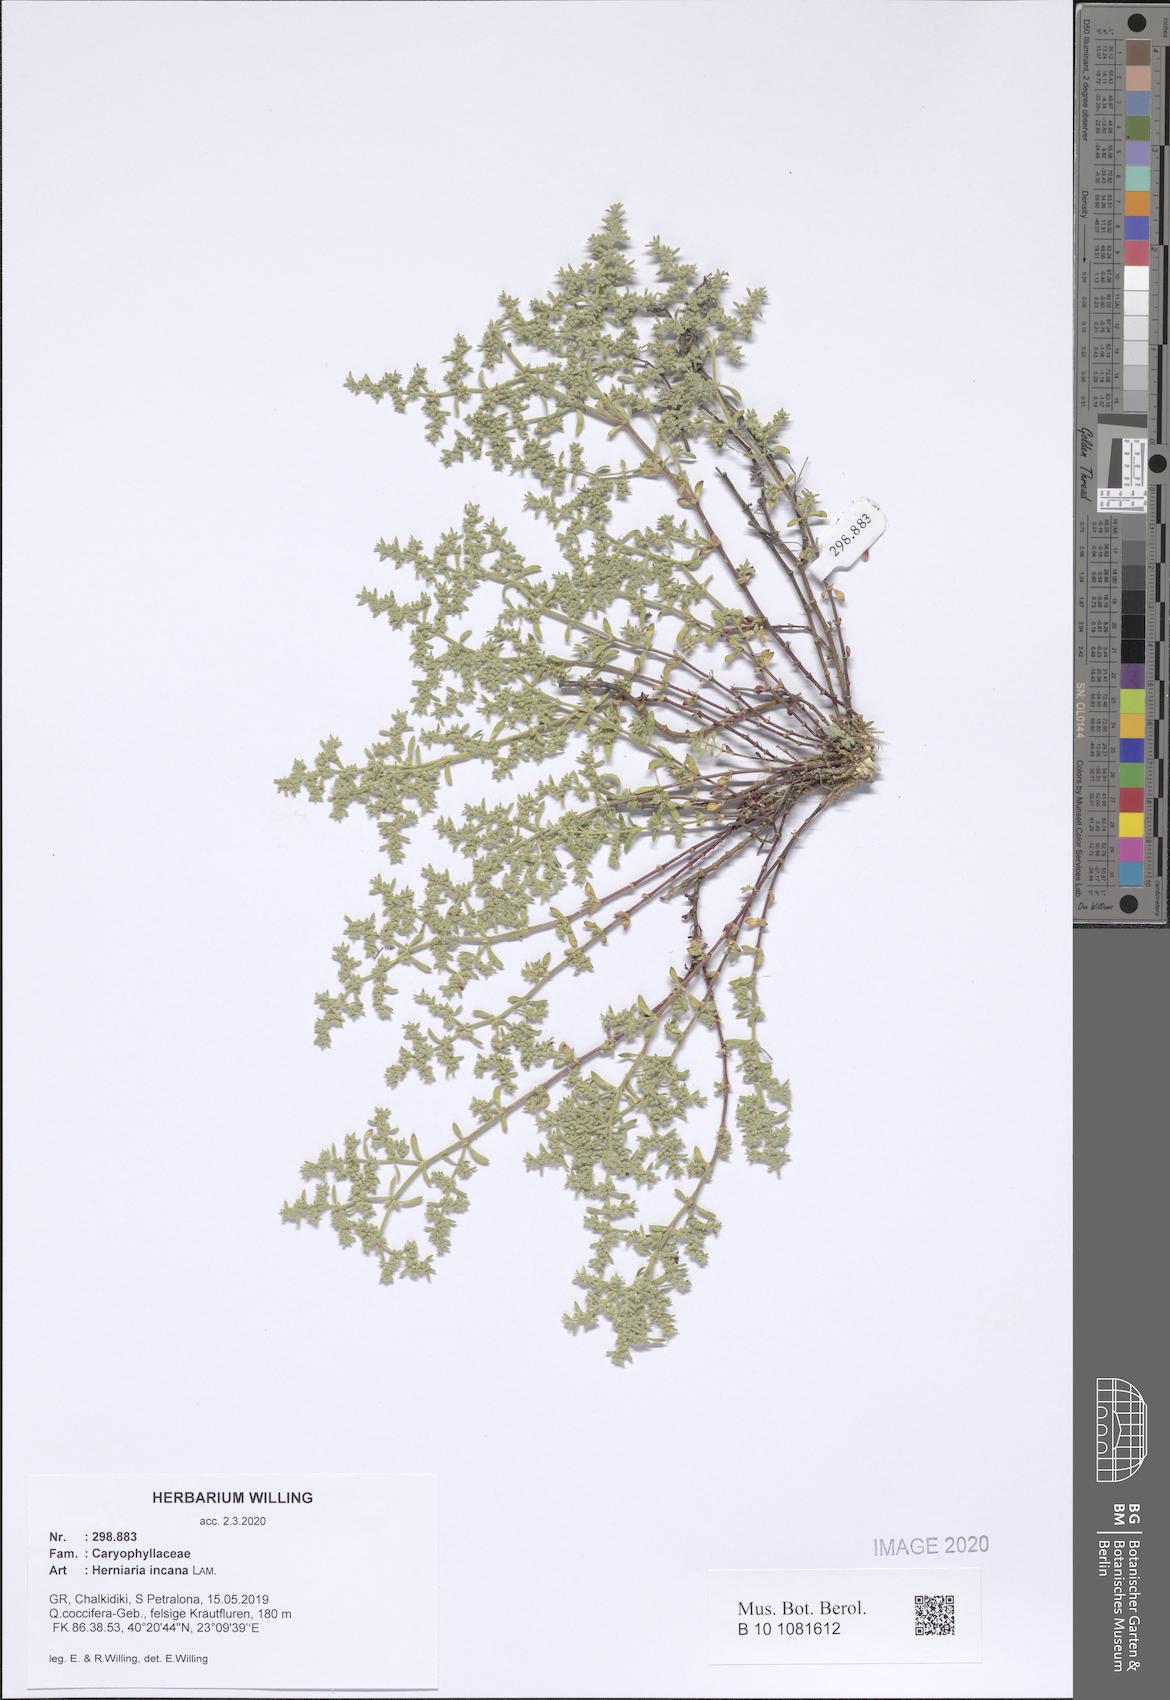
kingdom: Plantae
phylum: Tracheophyta
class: Magnoliopsida
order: Caryophyllales
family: Caryophyllaceae
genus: Herniaria
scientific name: Herniaria incana
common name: Gray rupturewort
